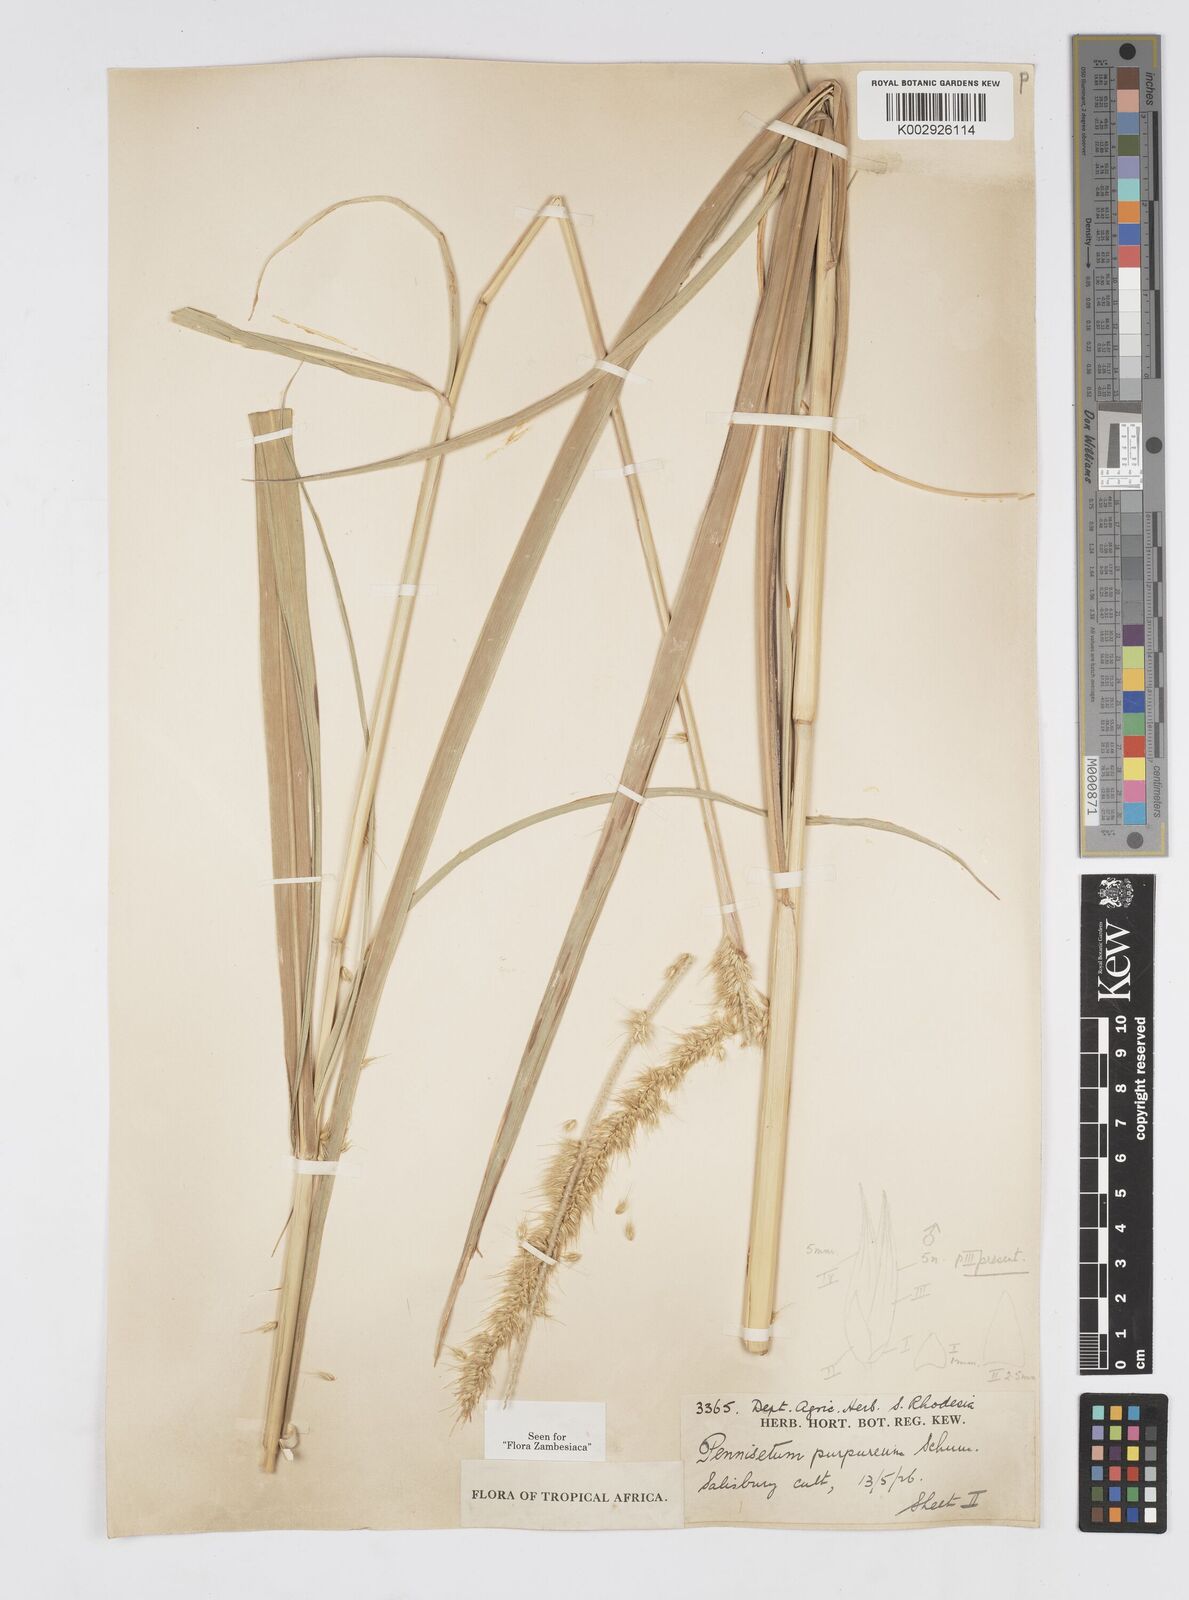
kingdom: Plantae
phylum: Tracheophyta
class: Liliopsida
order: Poales
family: Poaceae
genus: Cenchrus
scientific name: Cenchrus purpureus
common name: Elephant grass
